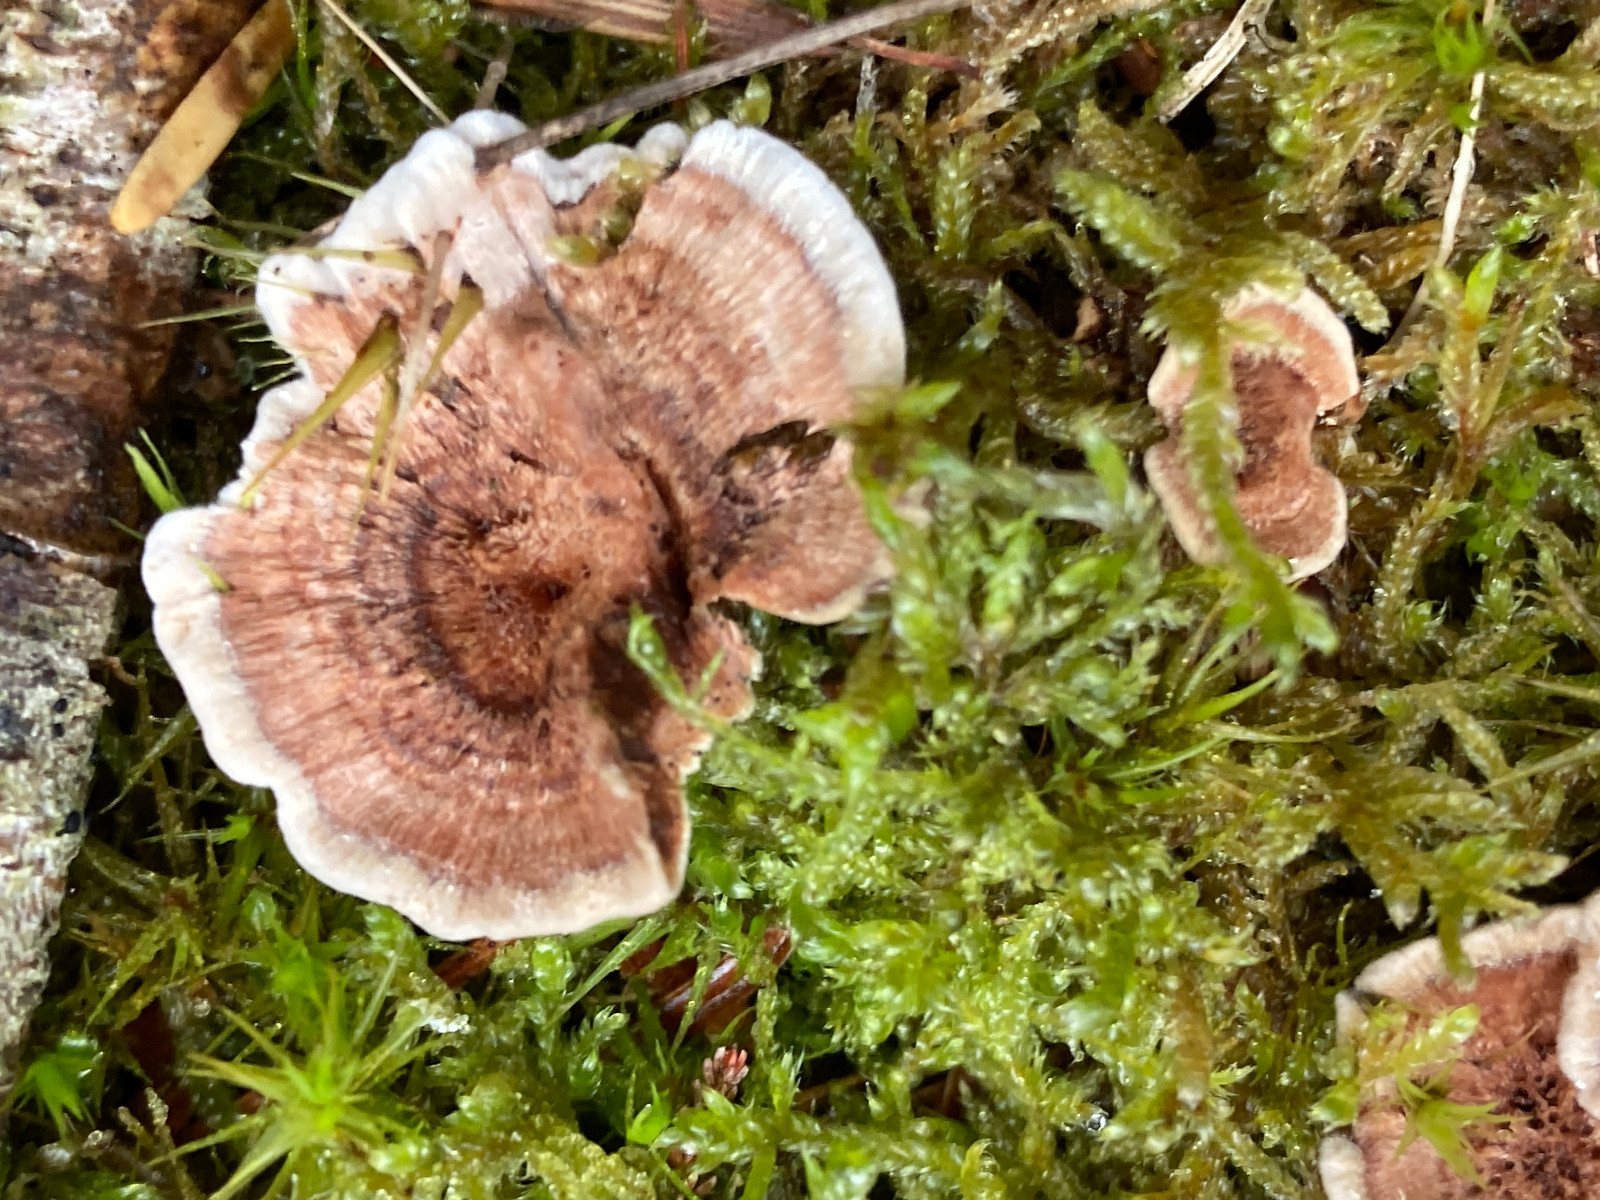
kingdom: Fungi
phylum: Basidiomycota
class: Agaricomycetes
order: Thelephorales
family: Bankeraceae
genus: Hydnellum
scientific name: Hydnellum concrescens
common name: Zoned tooth
